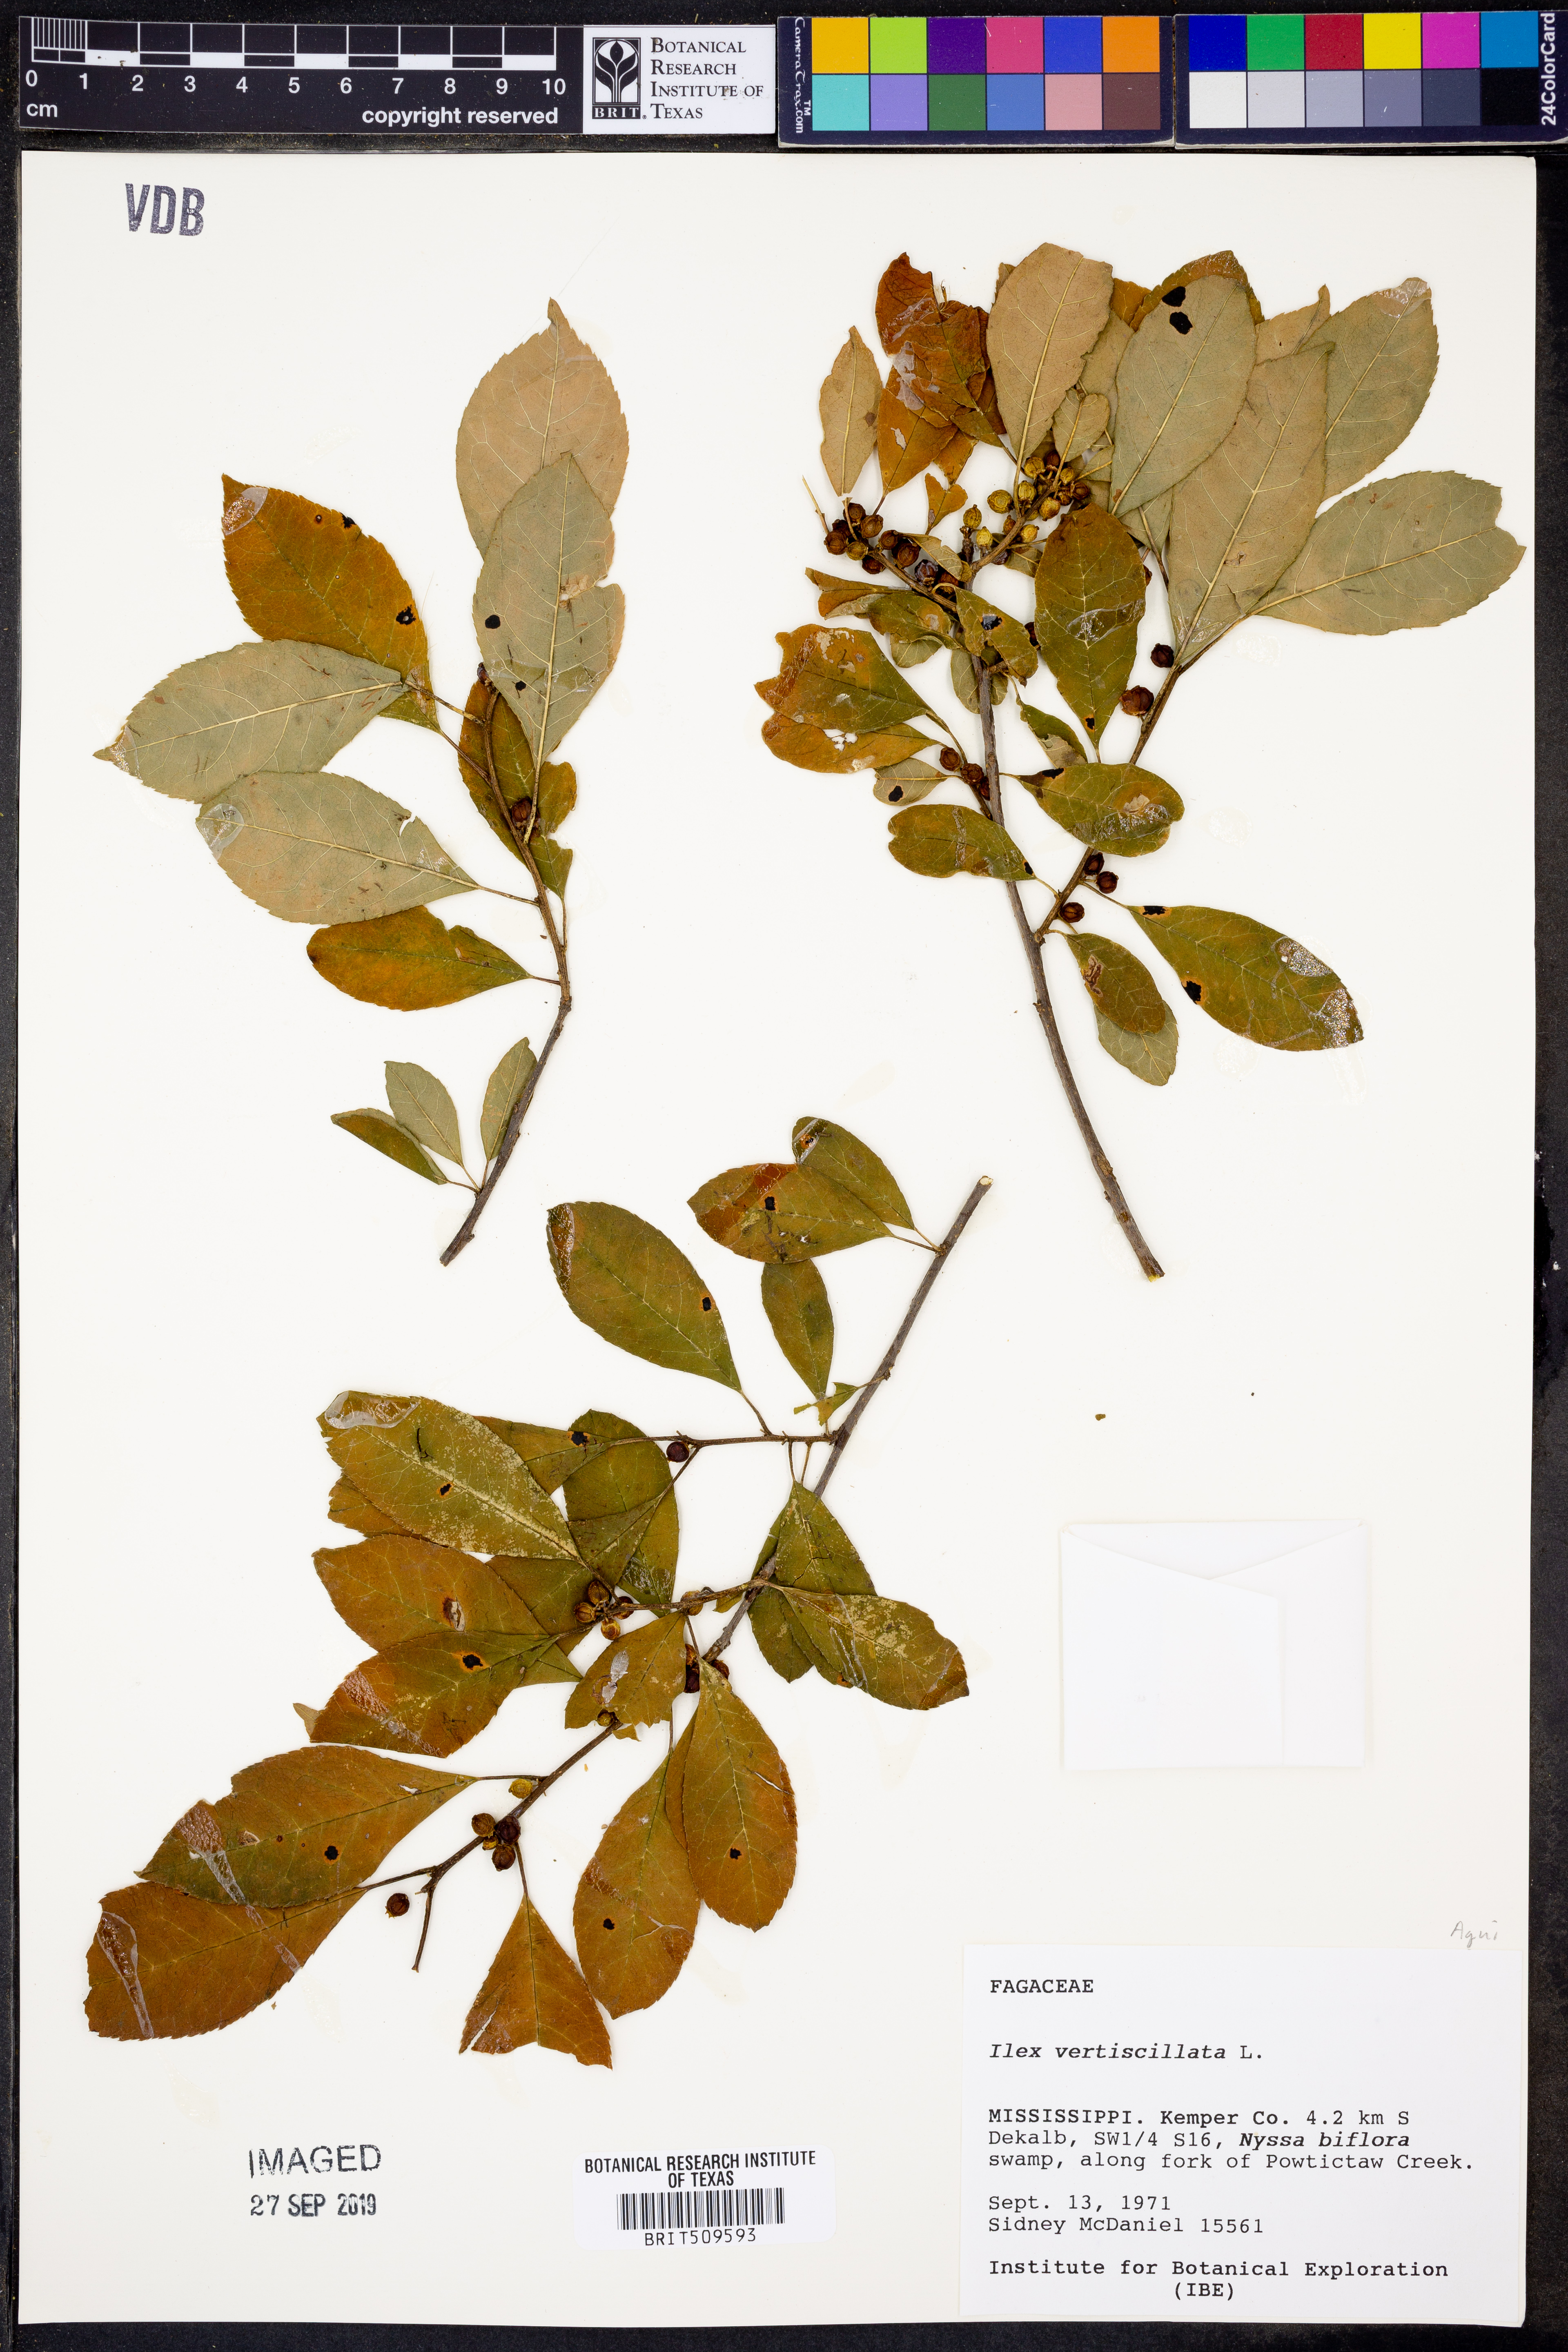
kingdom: Plantae
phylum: Tracheophyta
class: Magnoliopsida
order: Aquifoliales
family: Aquifoliaceae
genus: Ilex
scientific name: Ilex verticillata
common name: Virginia winterberry
